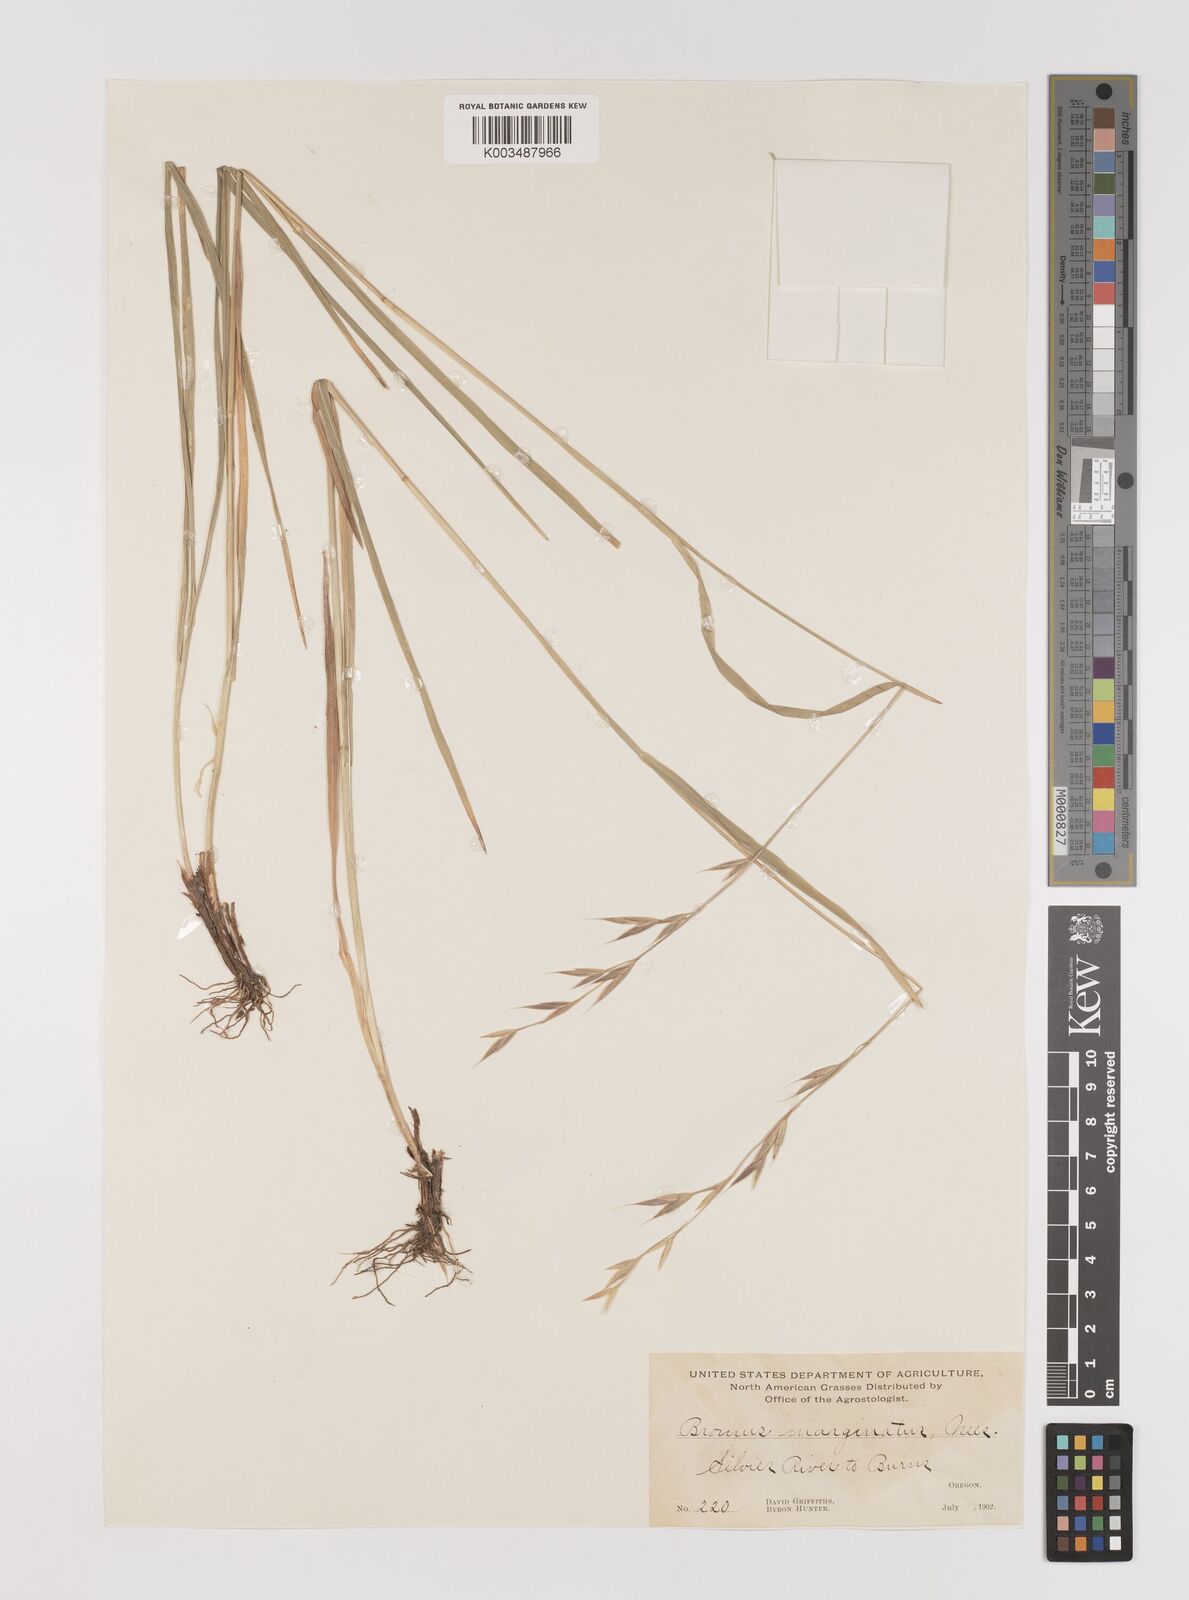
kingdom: Plantae
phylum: Tracheophyta
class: Liliopsida
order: Poales
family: Poaceae
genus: Bromus
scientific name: Bromus marginatus
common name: Western brome
